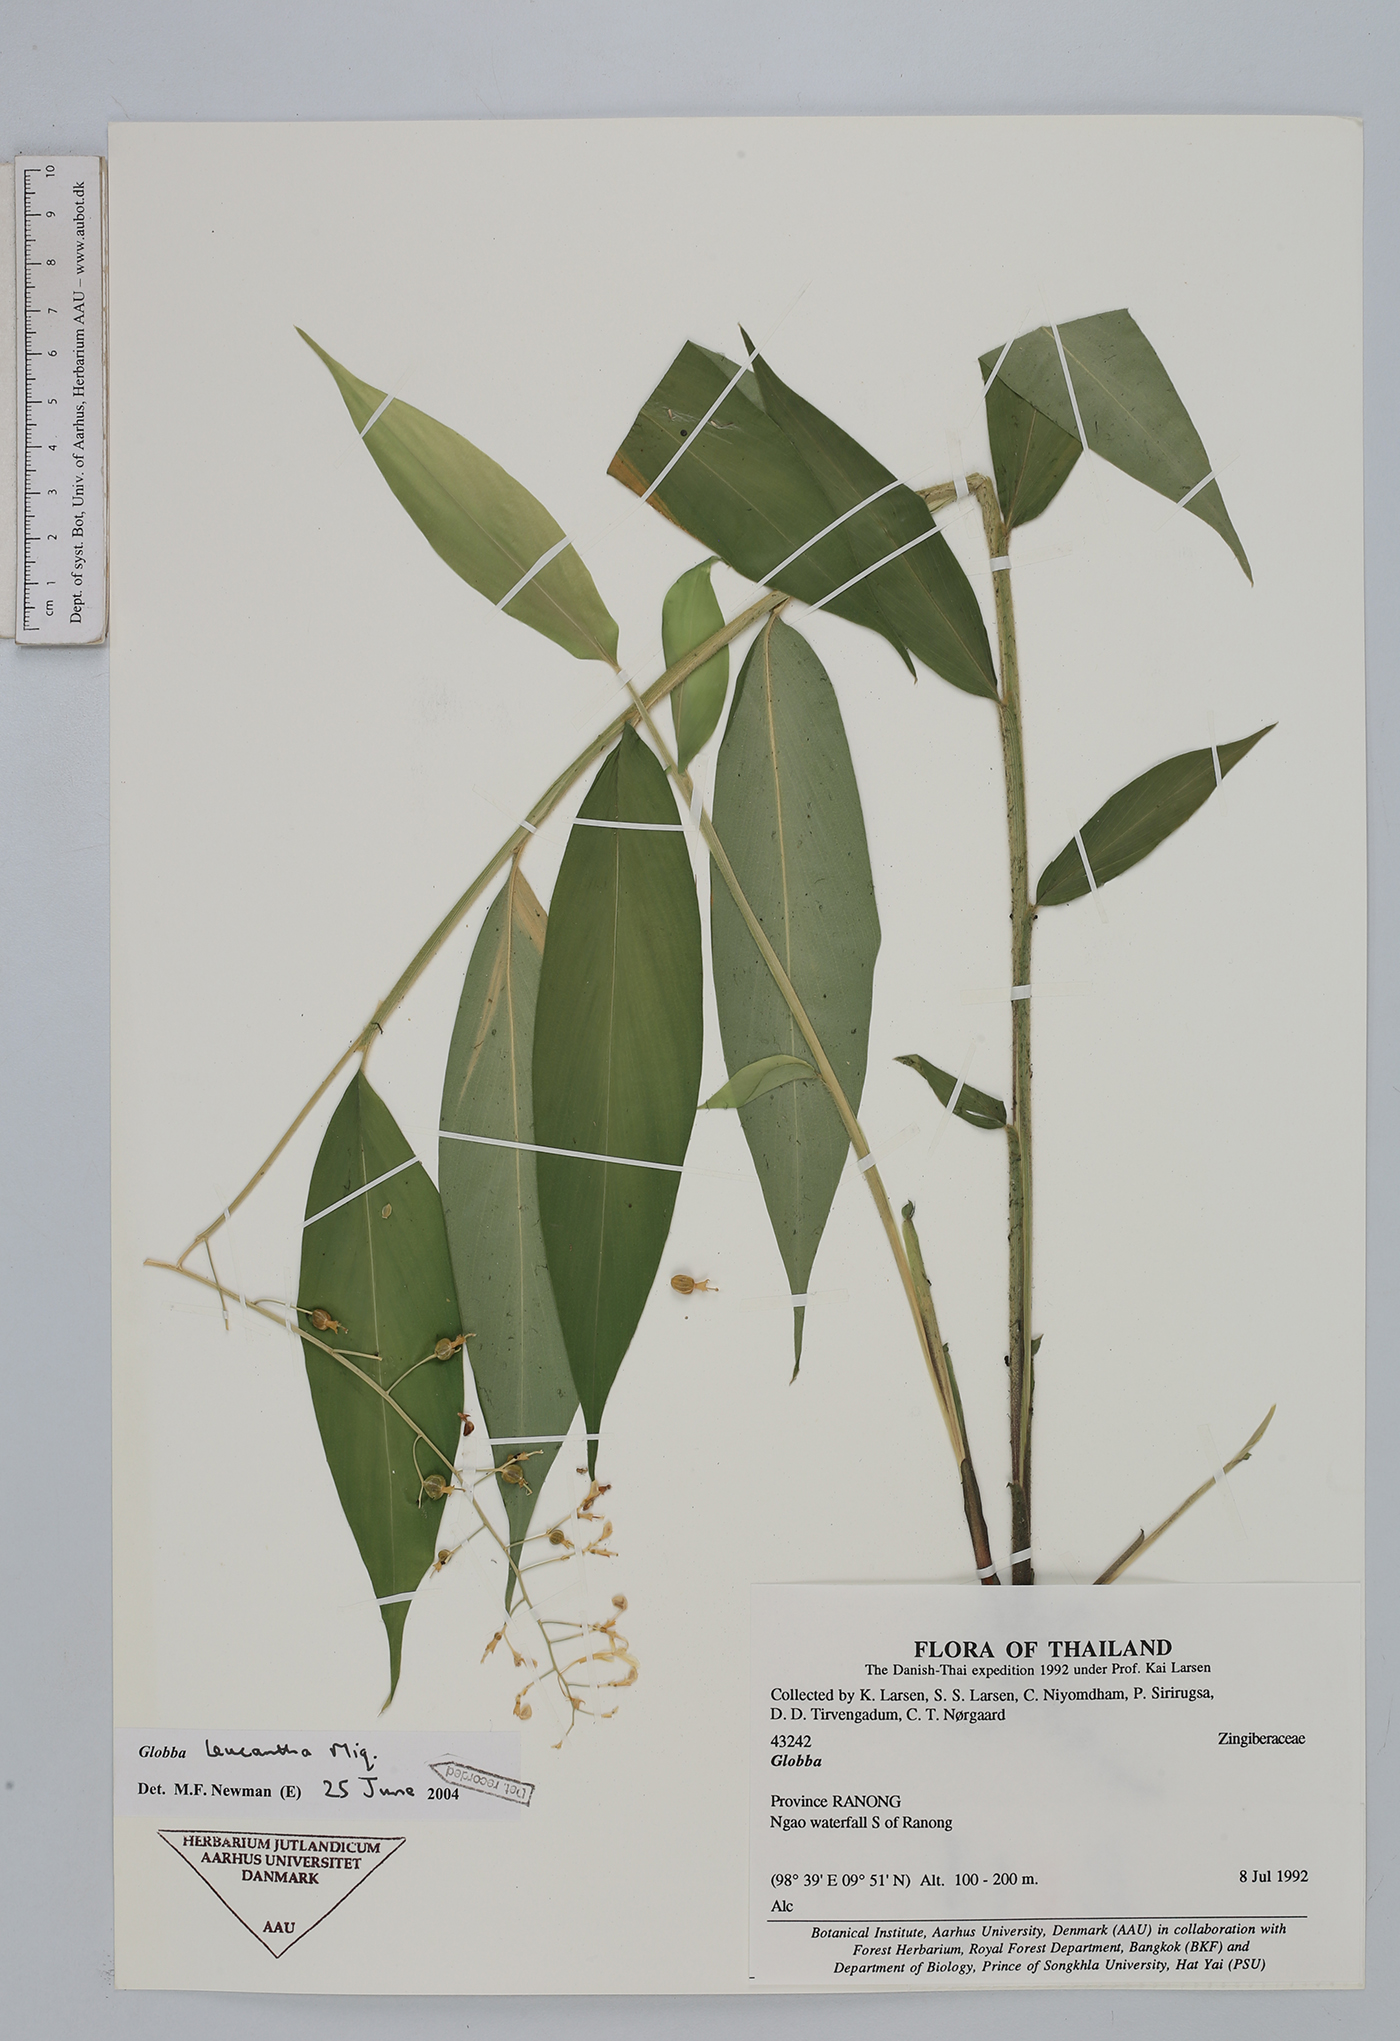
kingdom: Plantae
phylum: Tracheophyta
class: Liliopsida
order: Zingiberales
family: Zingiberaceae
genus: Globba
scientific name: Globba pendula
